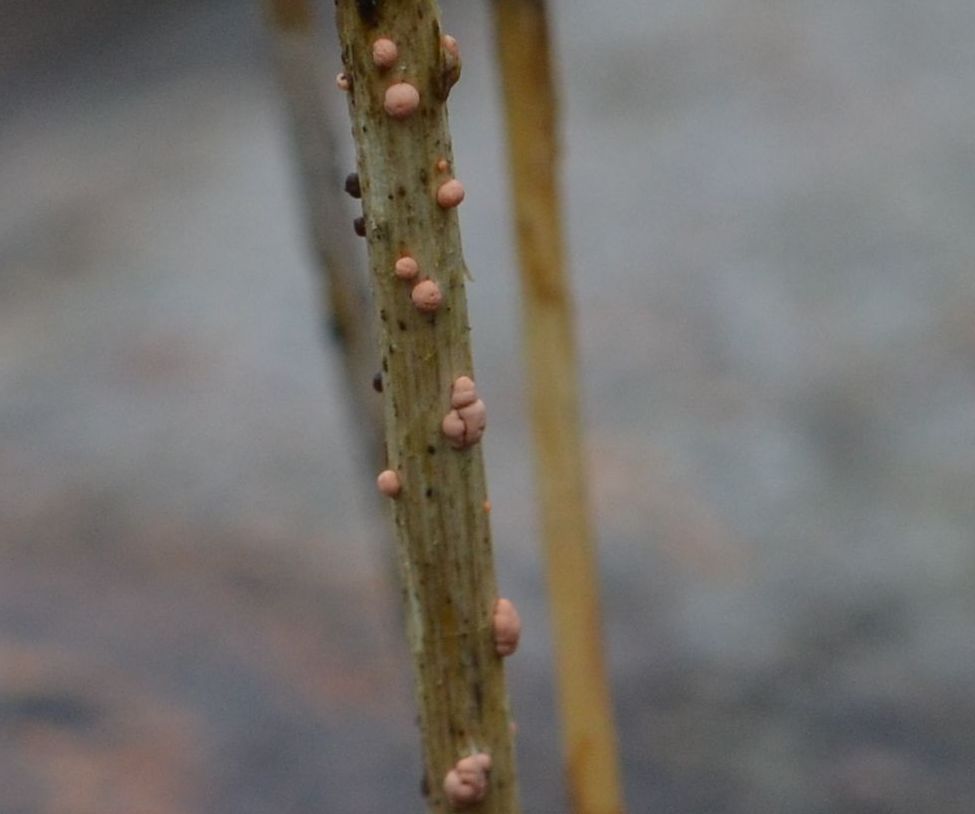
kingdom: Fungi
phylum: Ascomycota
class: Sordariomycetes
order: Hypocreales
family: Nectriaceae
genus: Nectria
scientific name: Nectria cinnabarina
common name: almindelig cinnobersvamp
